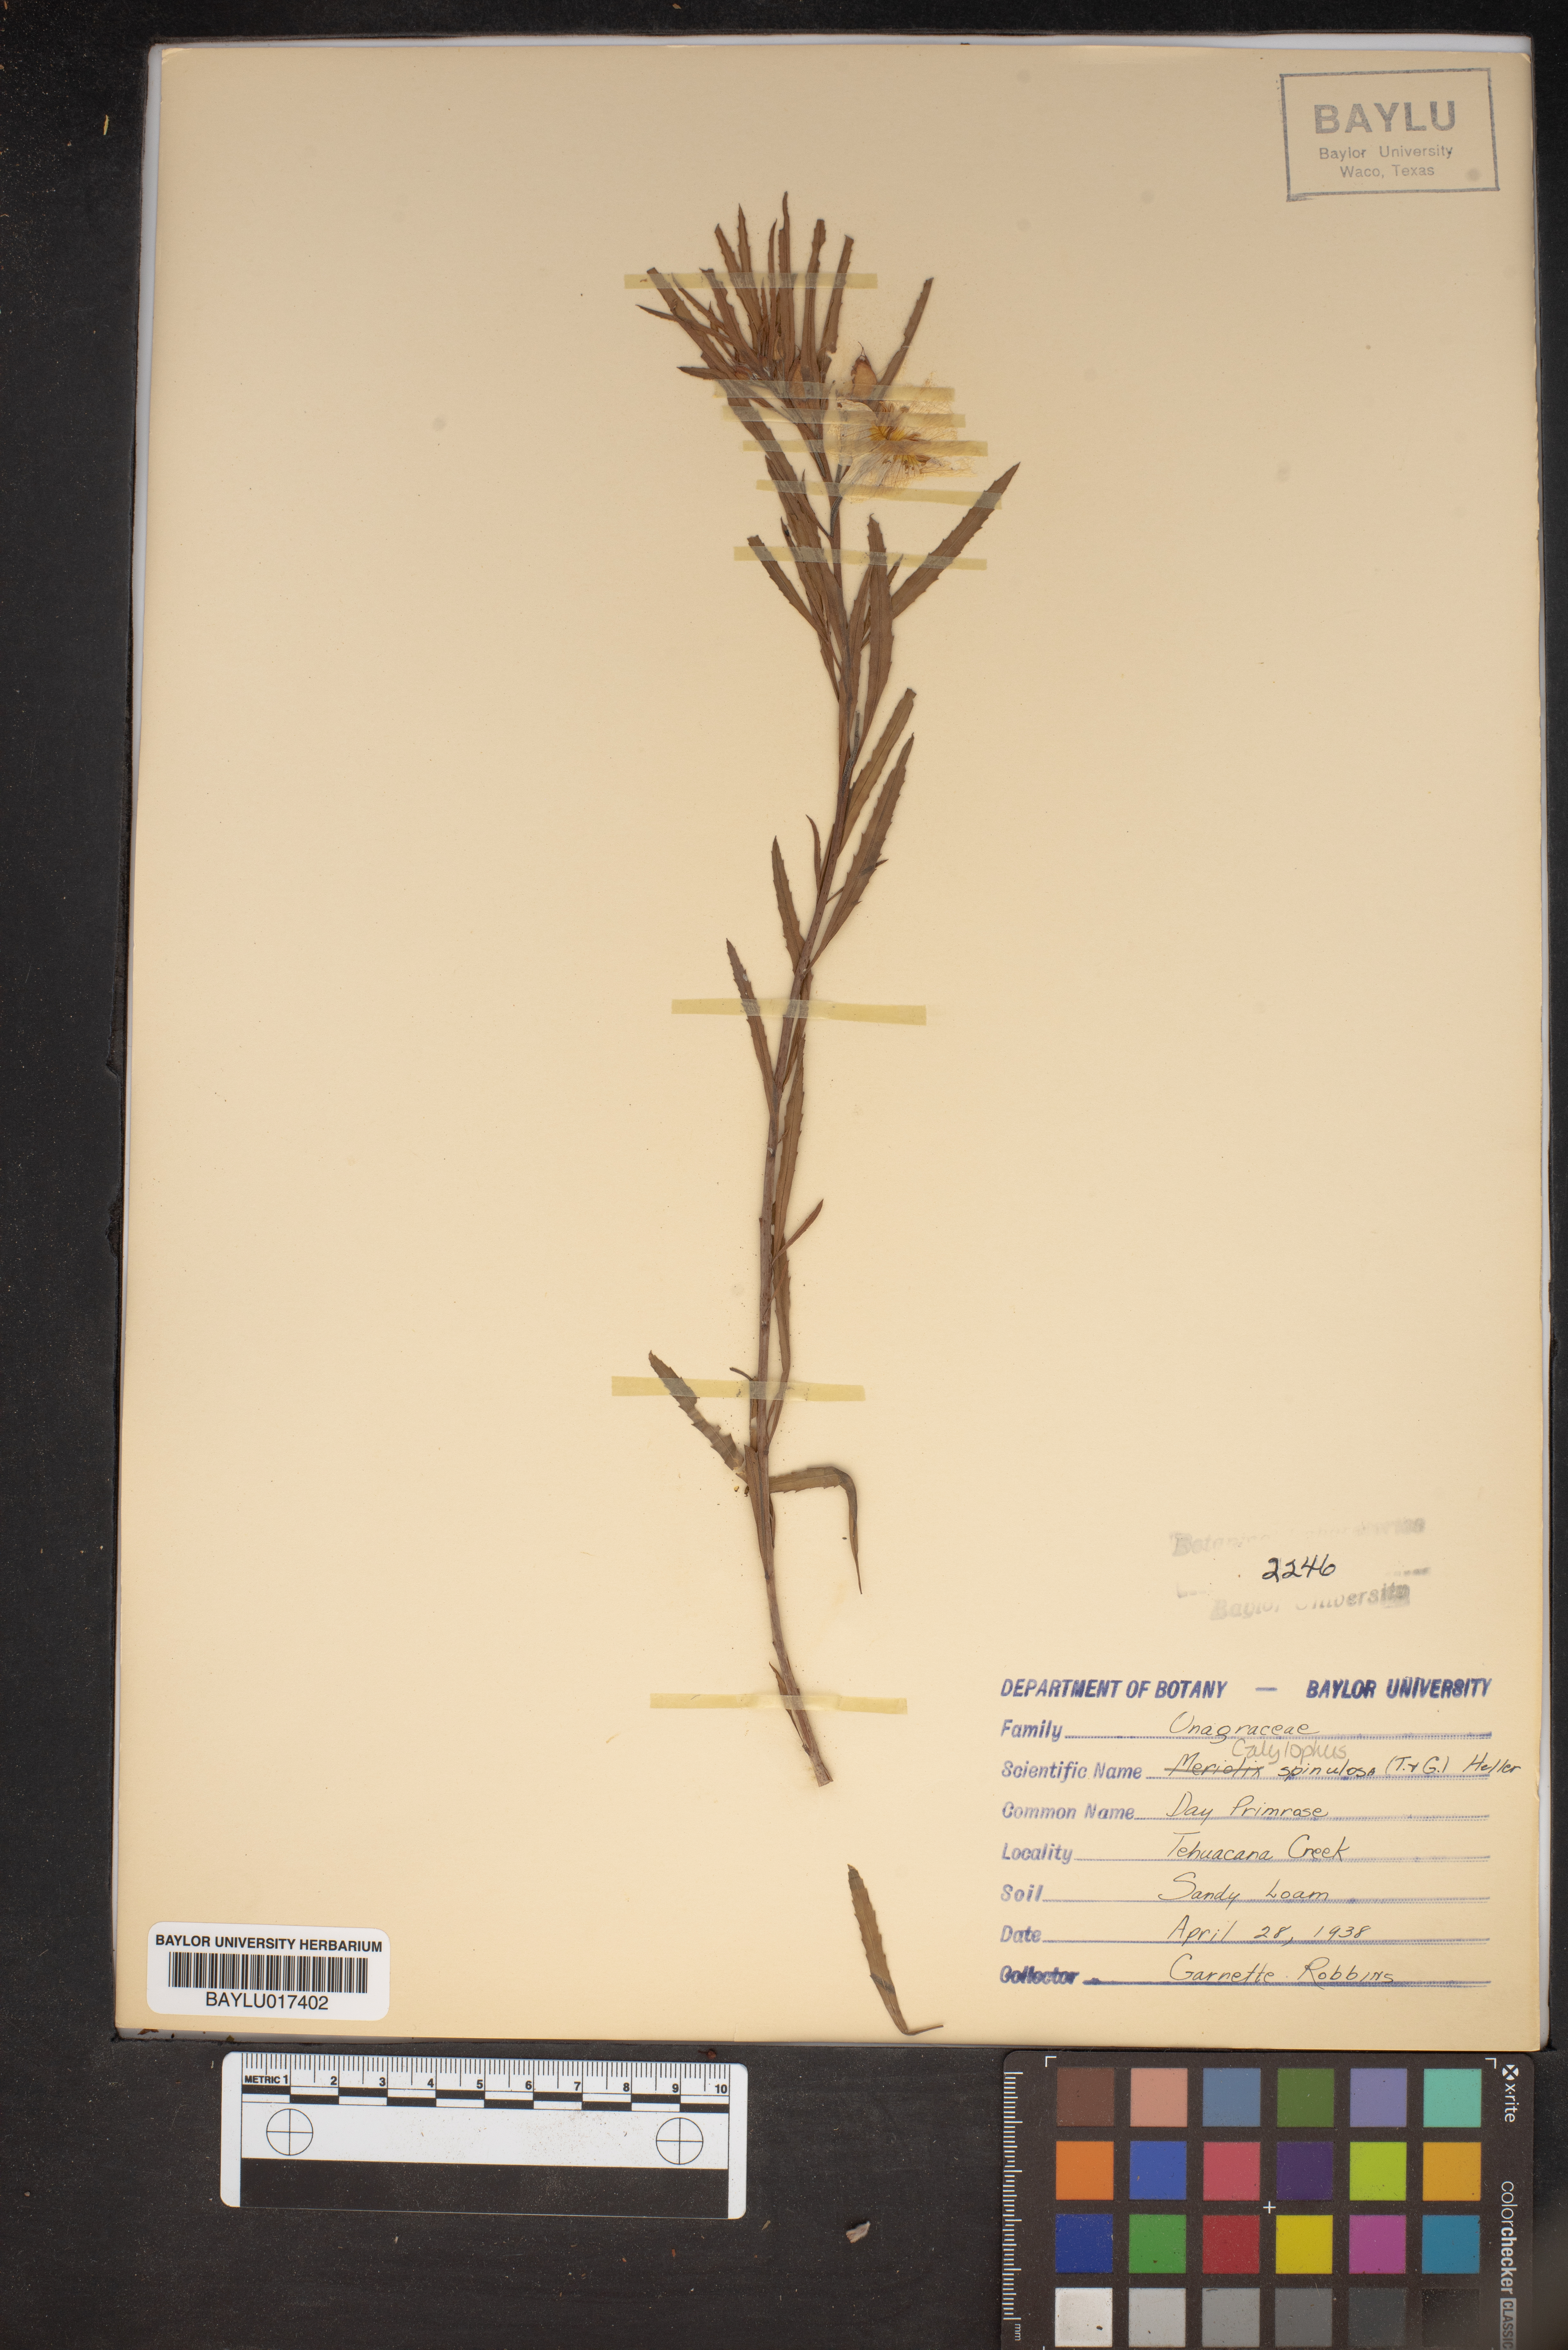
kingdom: Plantae
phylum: Tracheophyta
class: Magnoliopsida
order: Myrtales
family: Onagraceae
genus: Oenothera
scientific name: Oenothera
